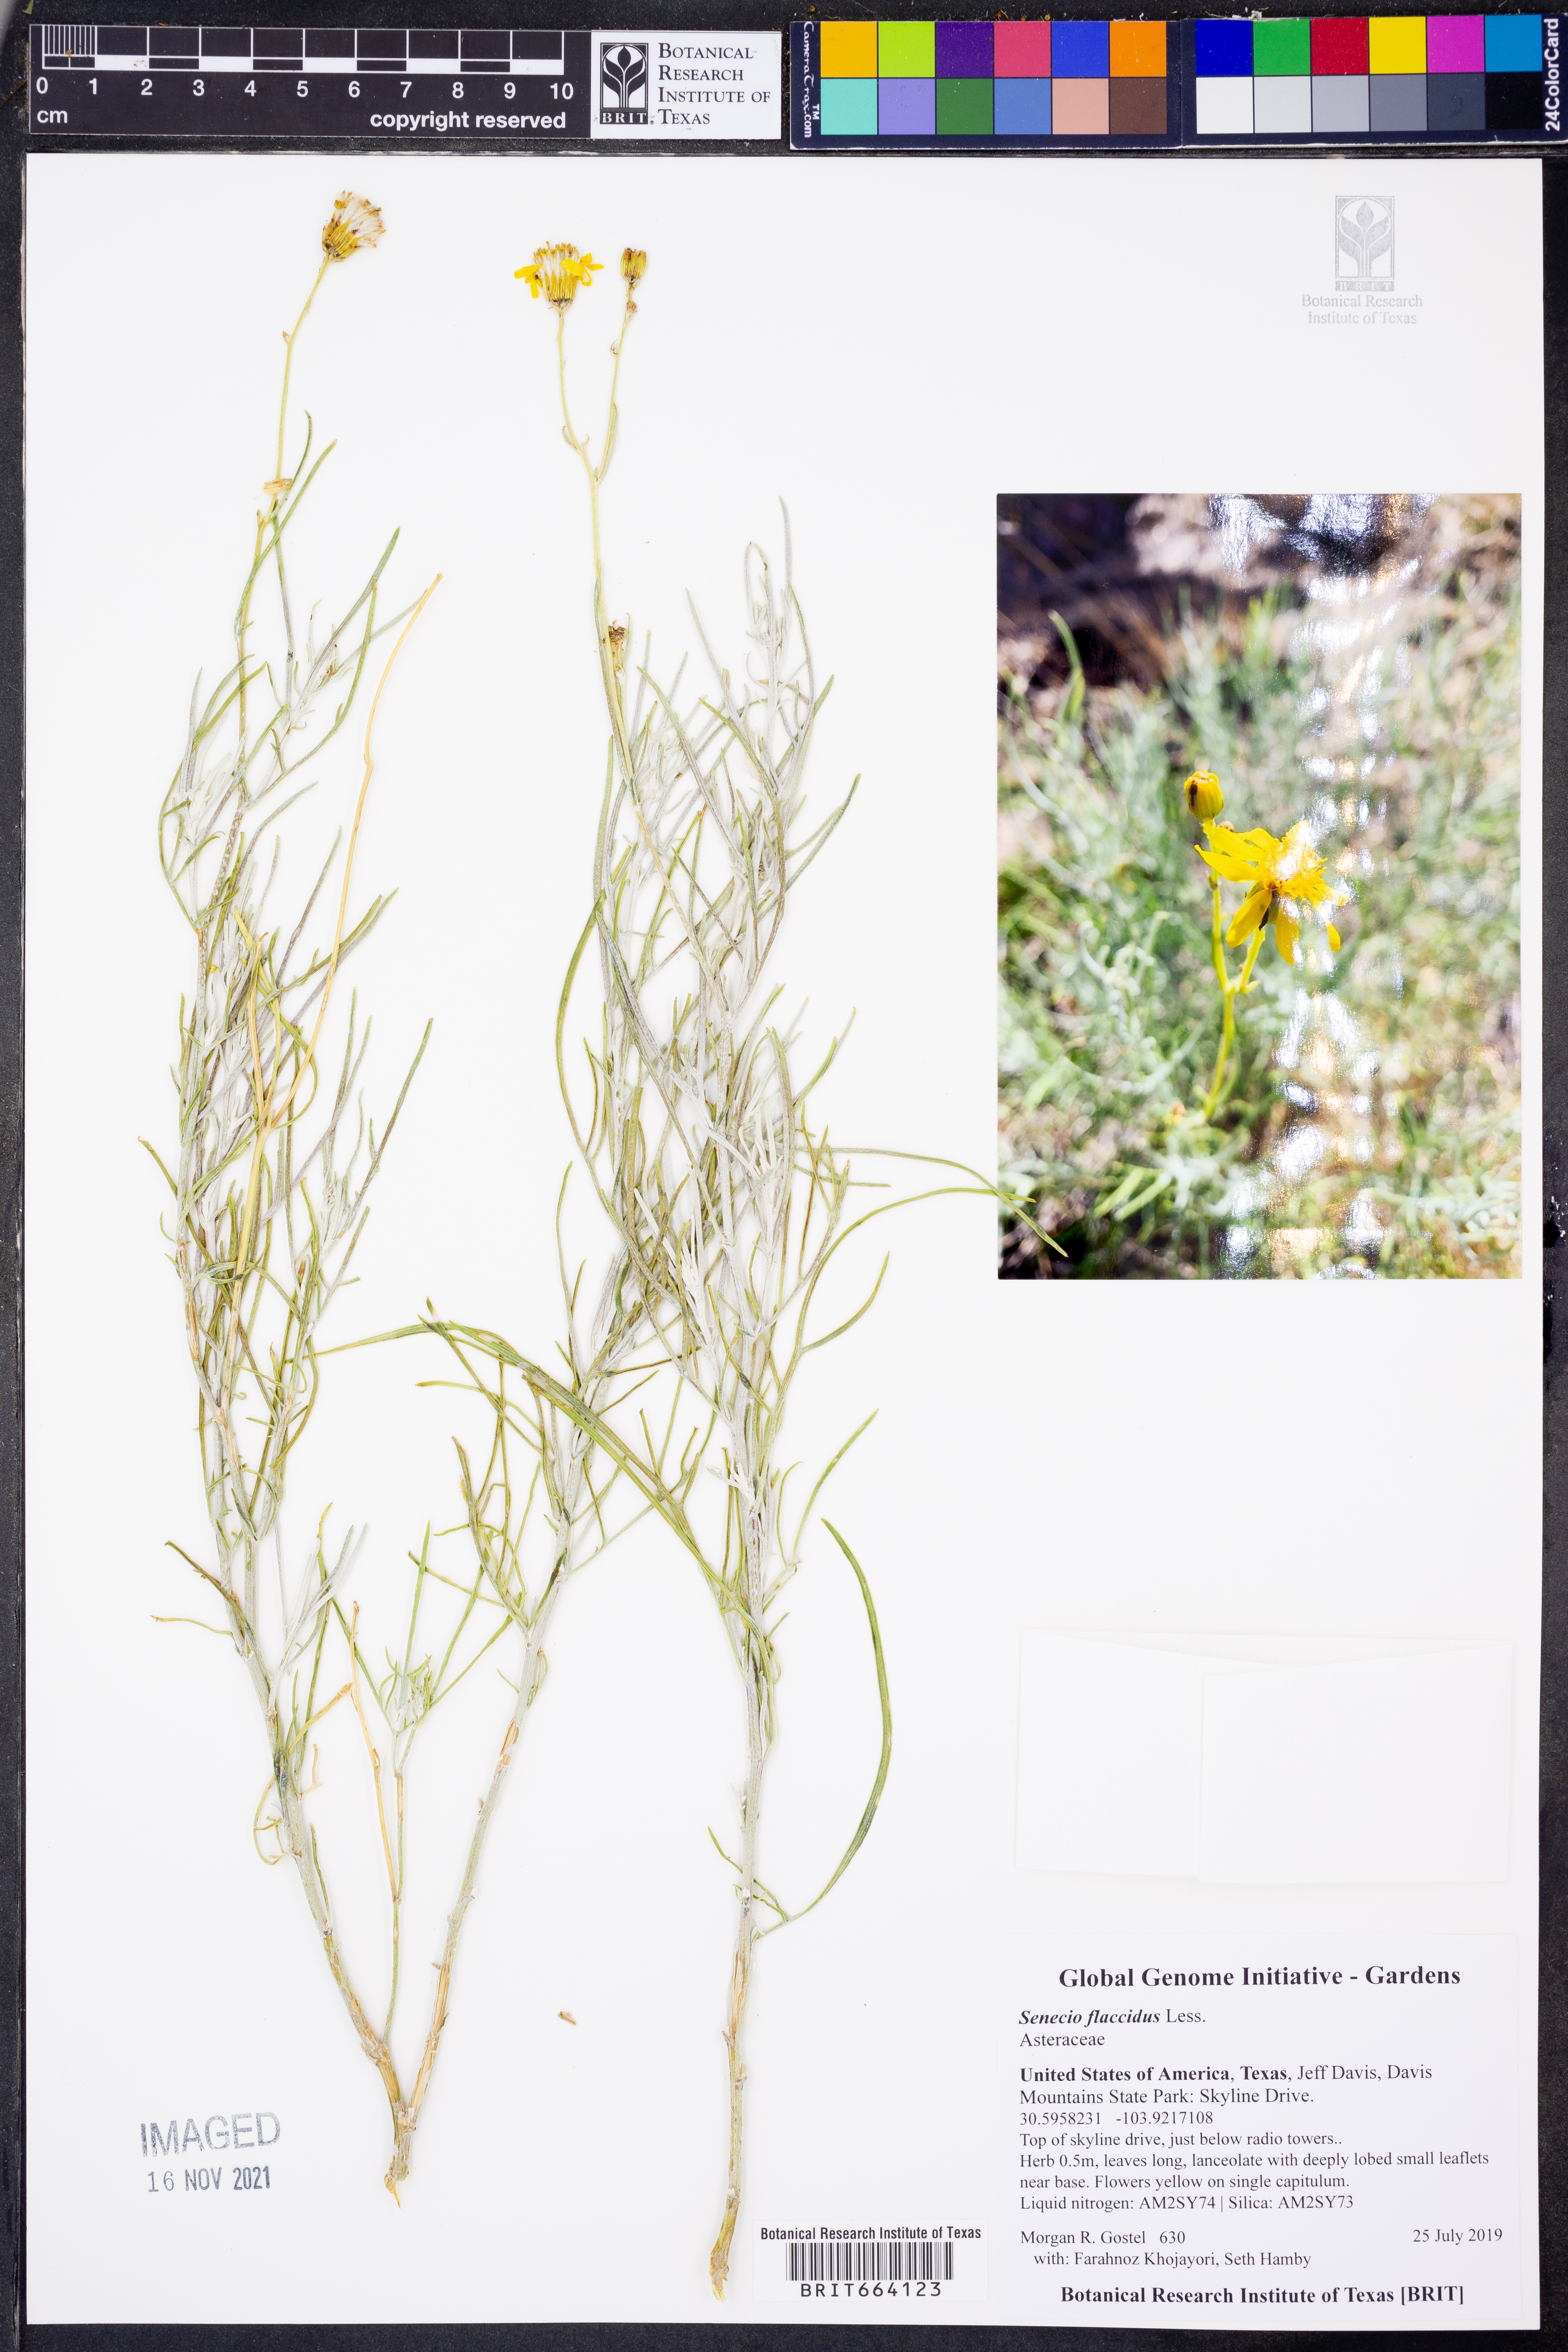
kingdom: Plantae
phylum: Tracheophyta
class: Magnoliopsida
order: Asterales
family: Asteraceae
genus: Senecio
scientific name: Senecio flaccidus
